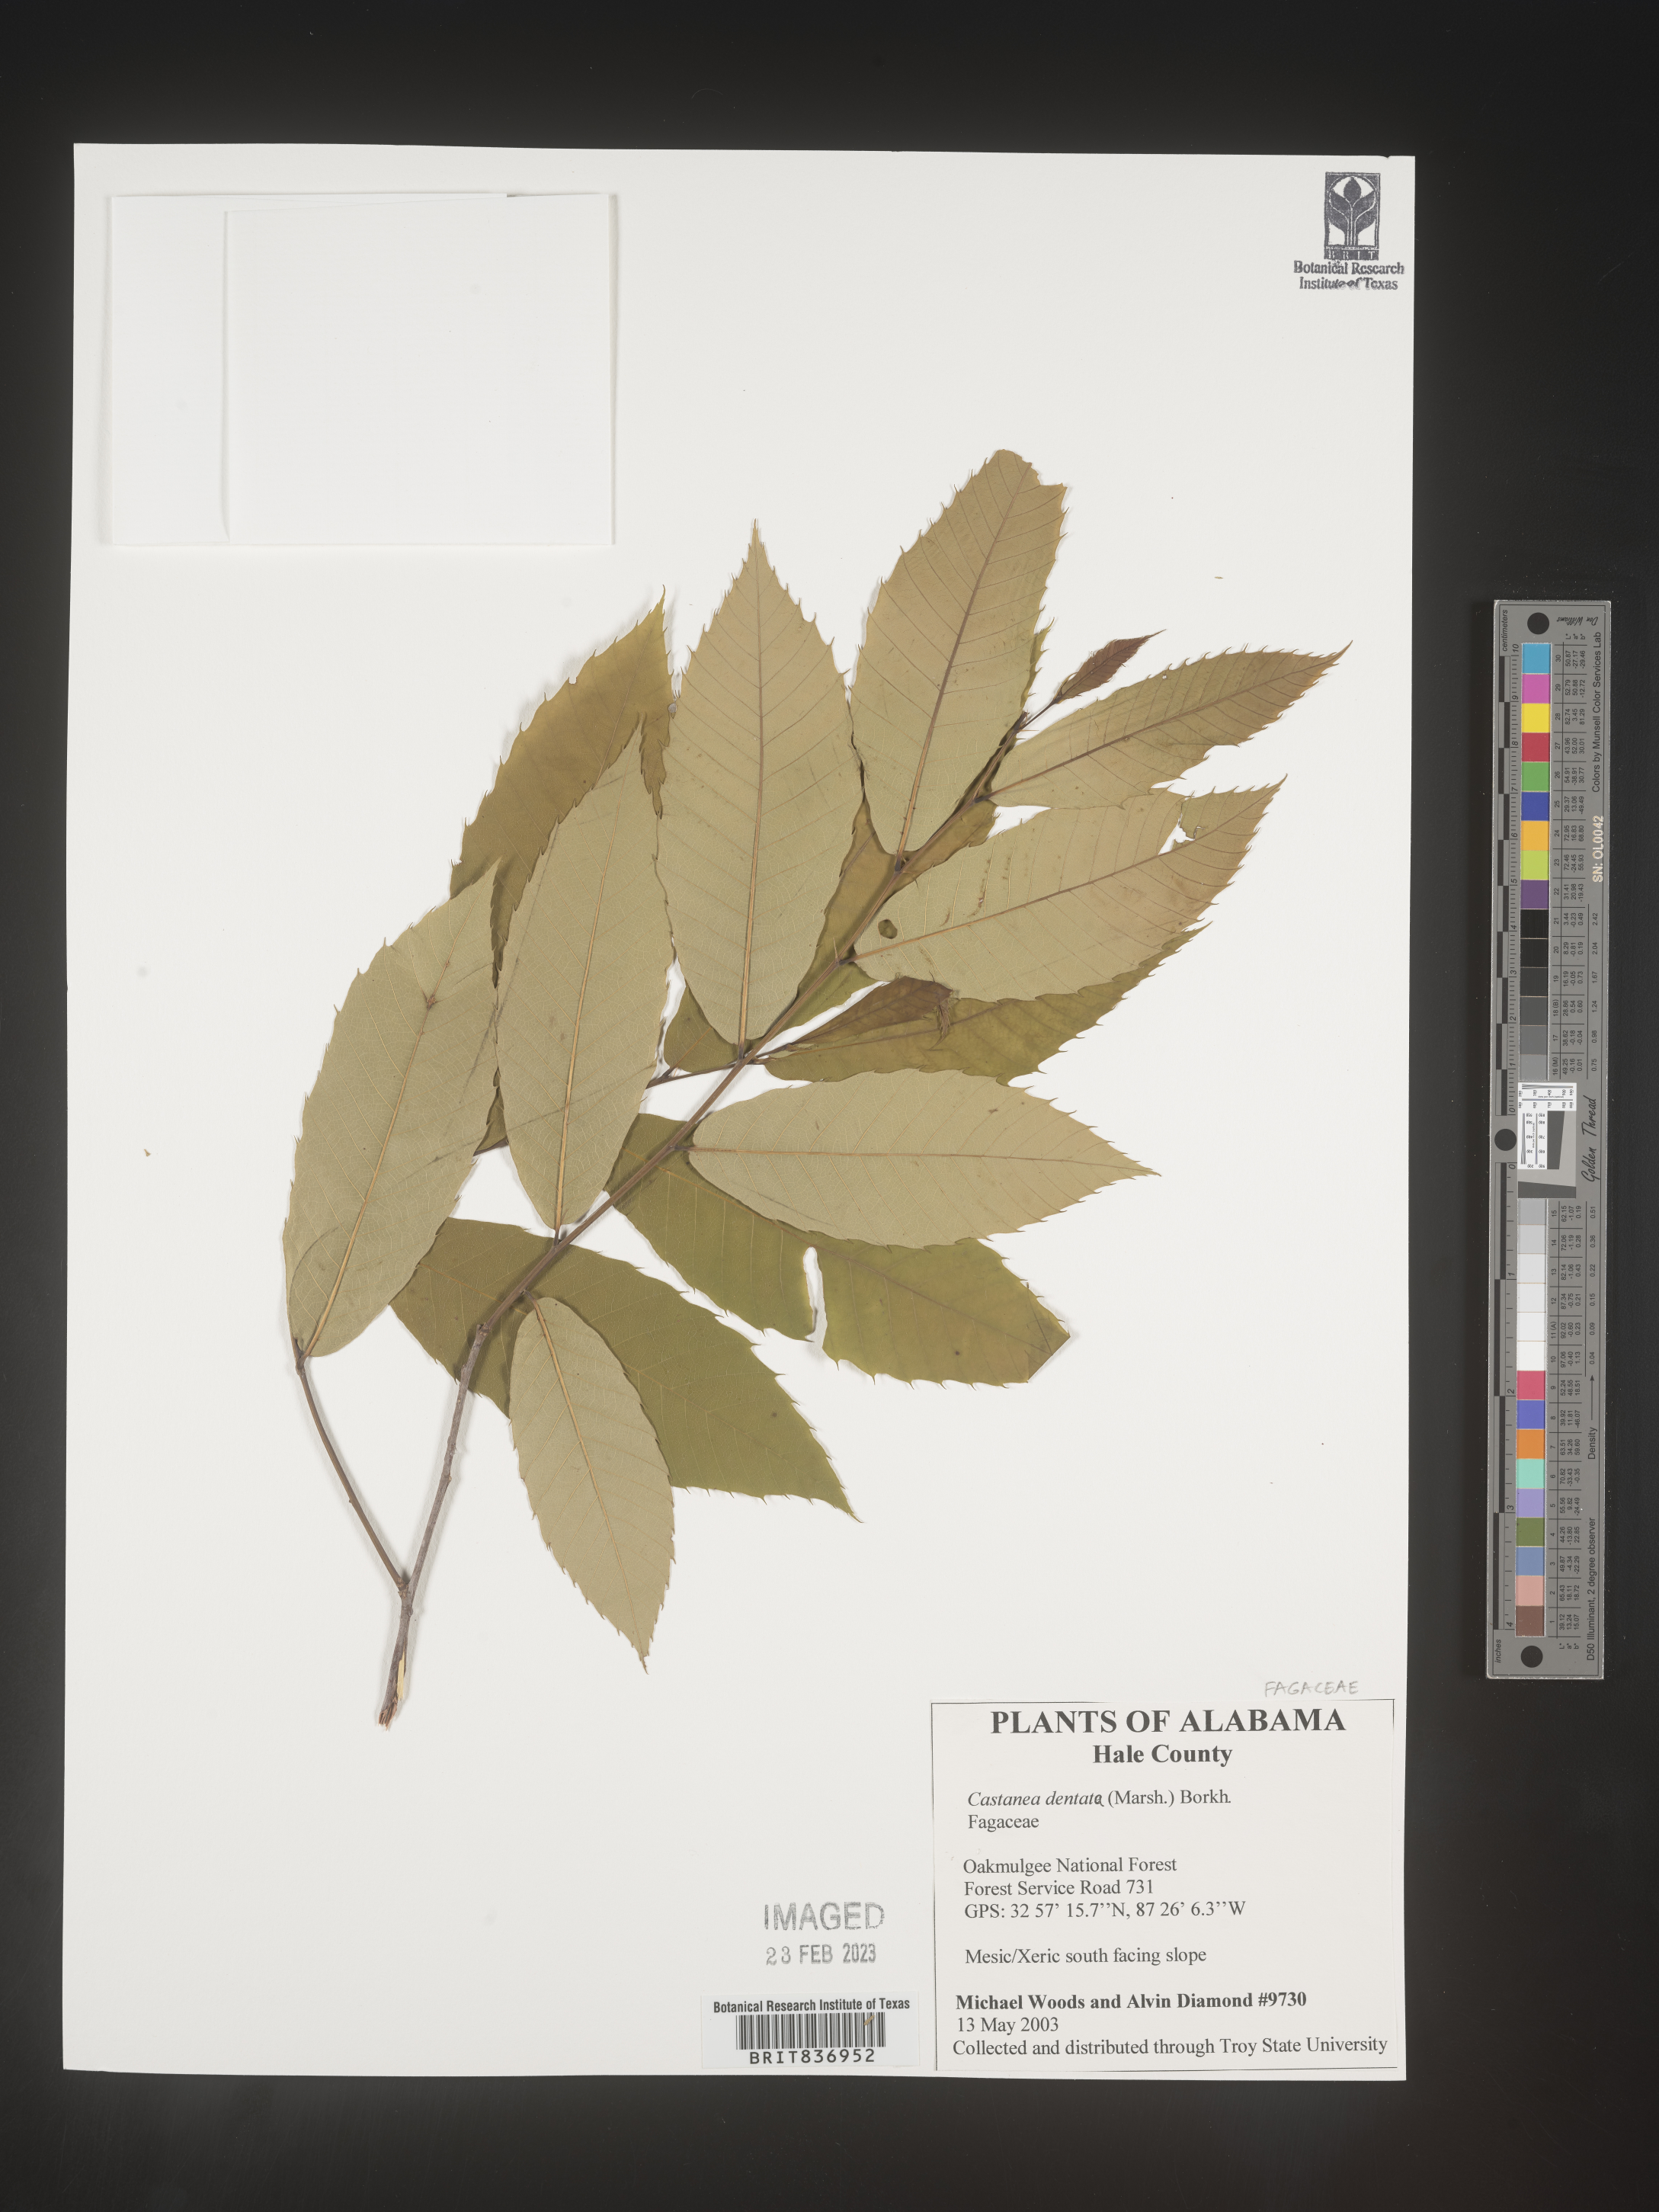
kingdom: Plantae
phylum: Tracheophyta
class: Magnoliopsida
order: Fagales
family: Fagaceae
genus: Castanea
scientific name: Castanea dentata
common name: American chestnut
